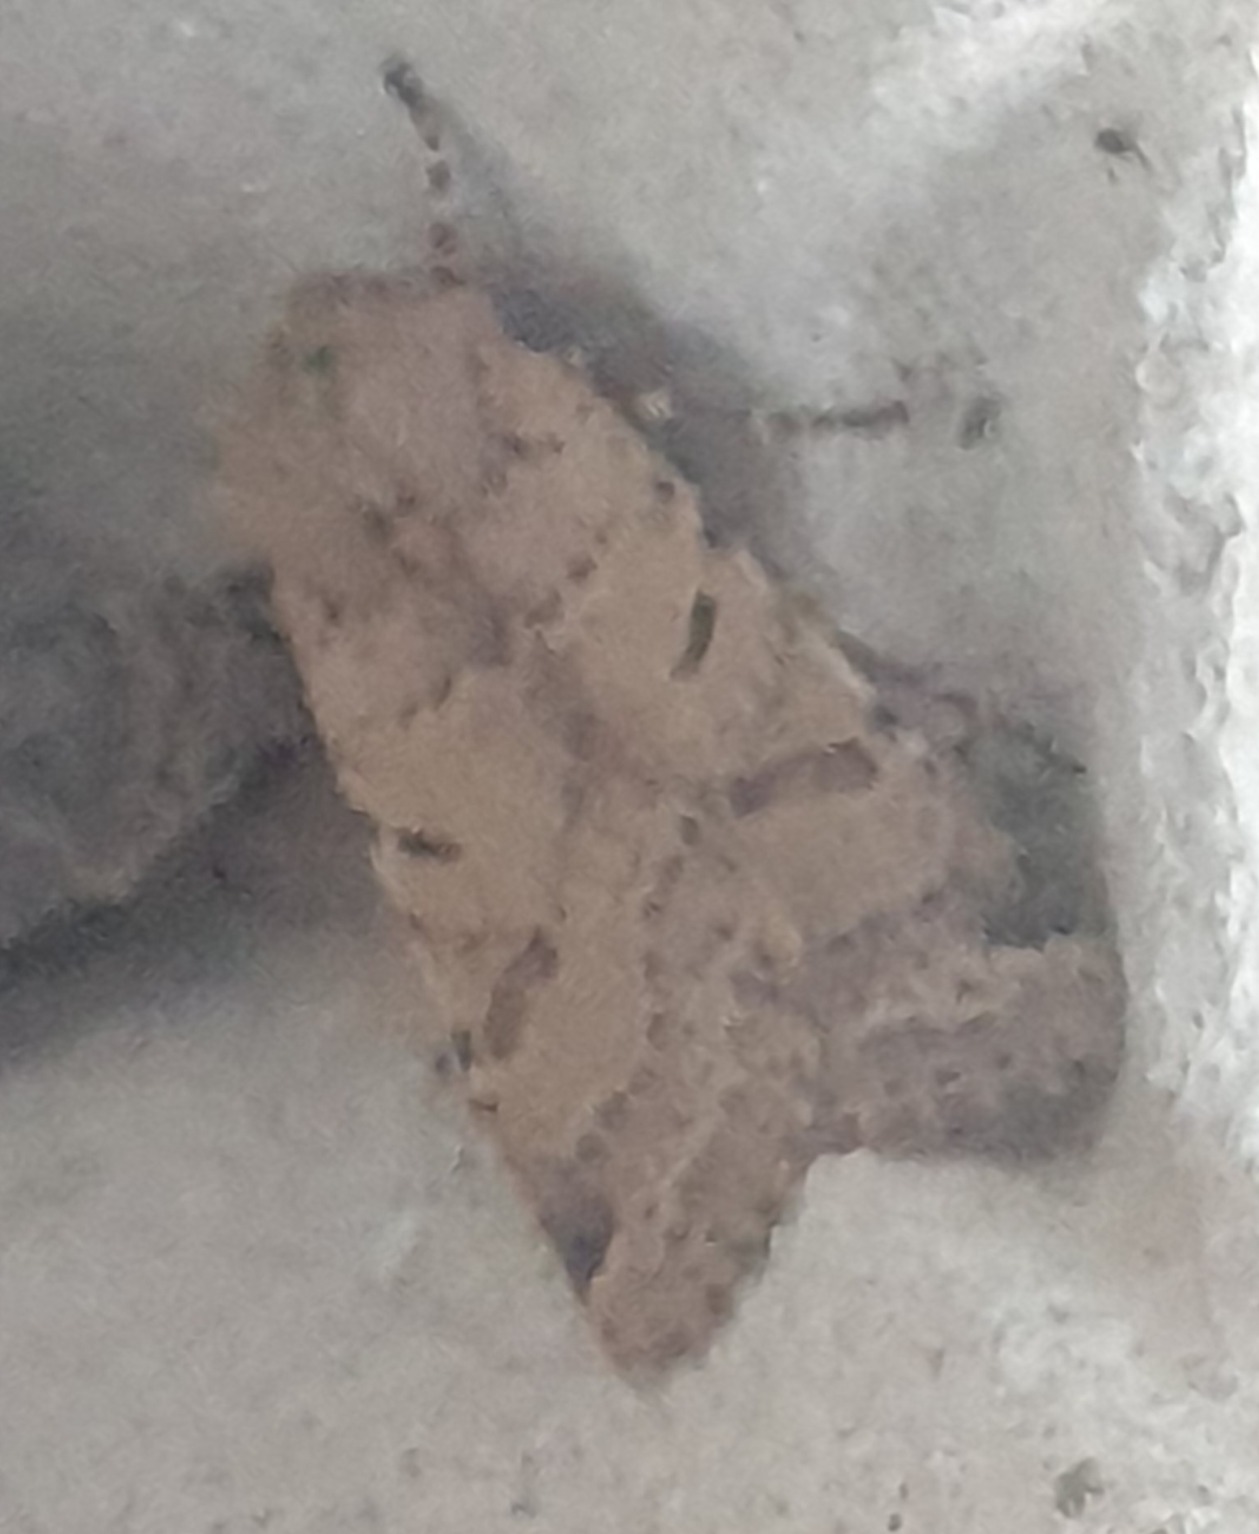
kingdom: Animalia
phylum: Arthropoda
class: Insecta
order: Lepidoptera
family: Noctuidae
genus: Agrochola
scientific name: Agrochola lychnidis
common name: Foranderlig jordfarveugle
